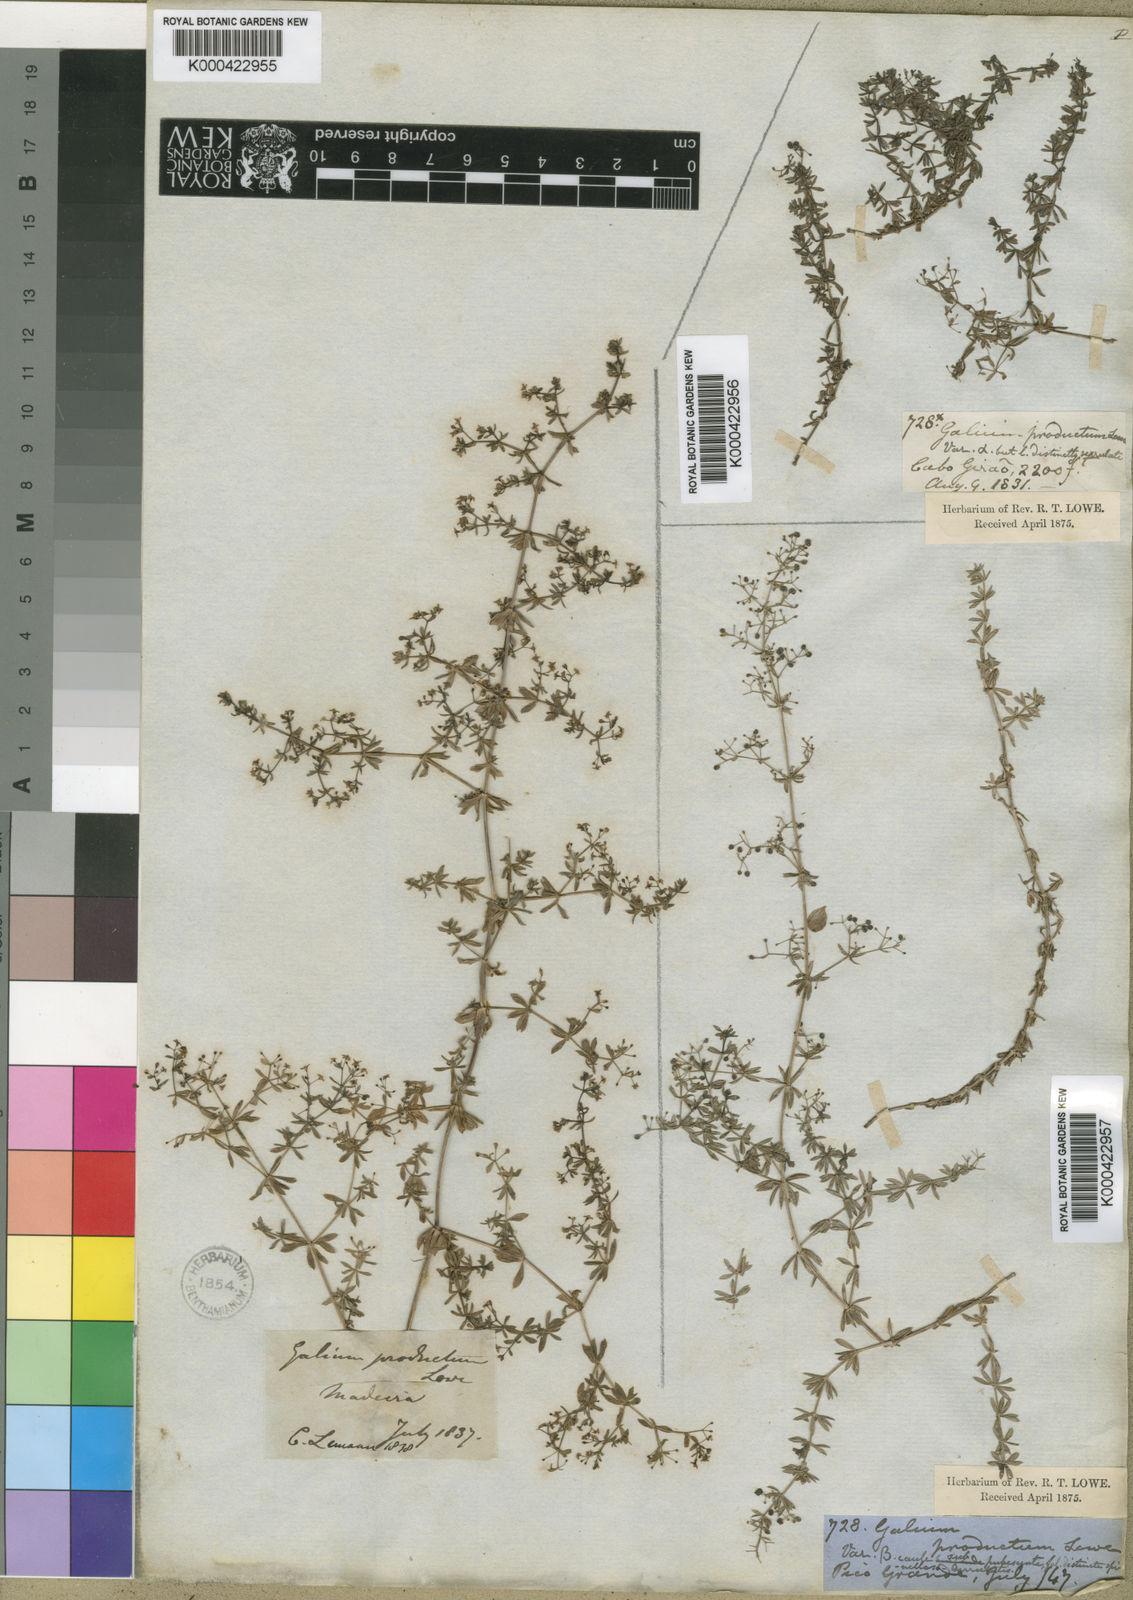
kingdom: Plantae
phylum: Tracheophyta
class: Magnoliopsida
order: Gentianales
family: Rubiaceae
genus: Galium
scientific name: Galium productum
